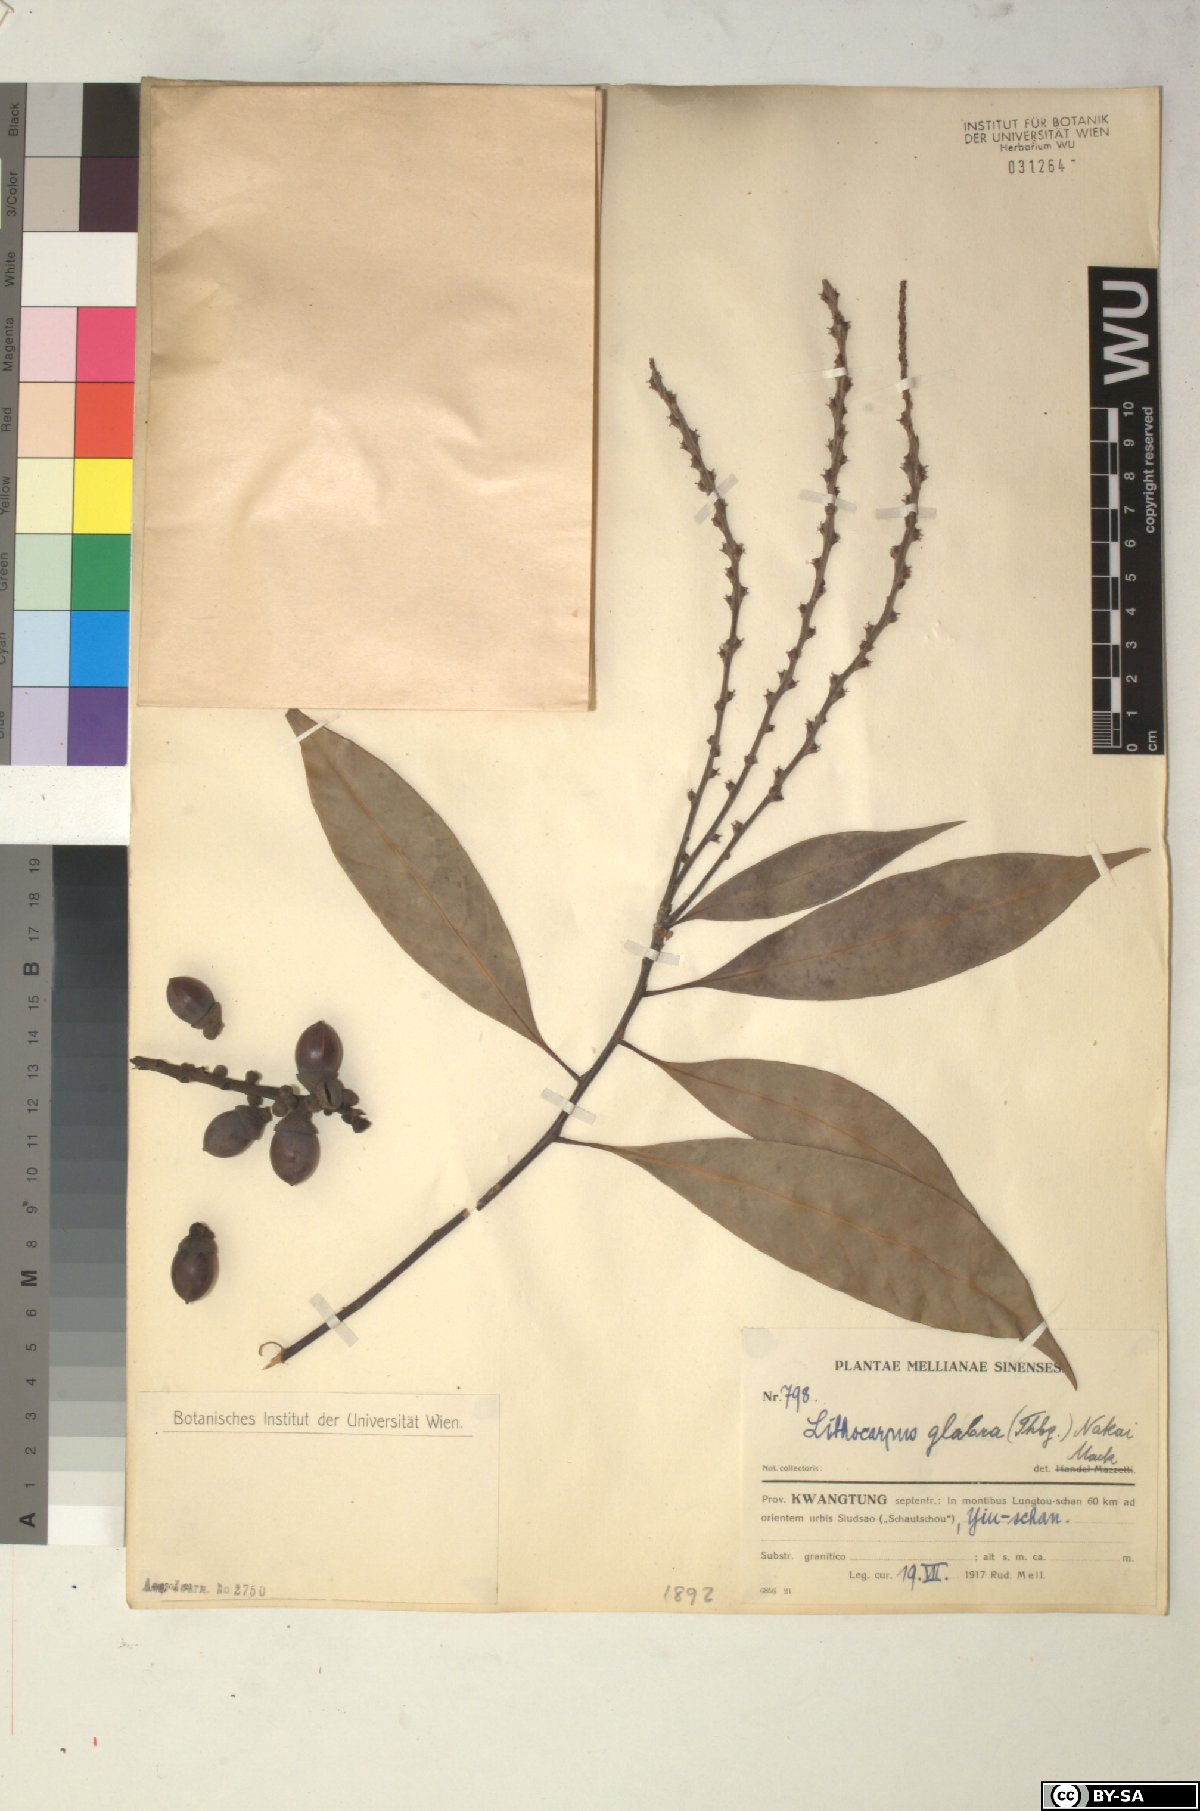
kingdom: Plantae
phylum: Tracheophyta
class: Magnoliopsida
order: Fagales
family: Fagaceae
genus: Lithocarpus
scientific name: Lithocarpus glaber
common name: Japanese-oak
